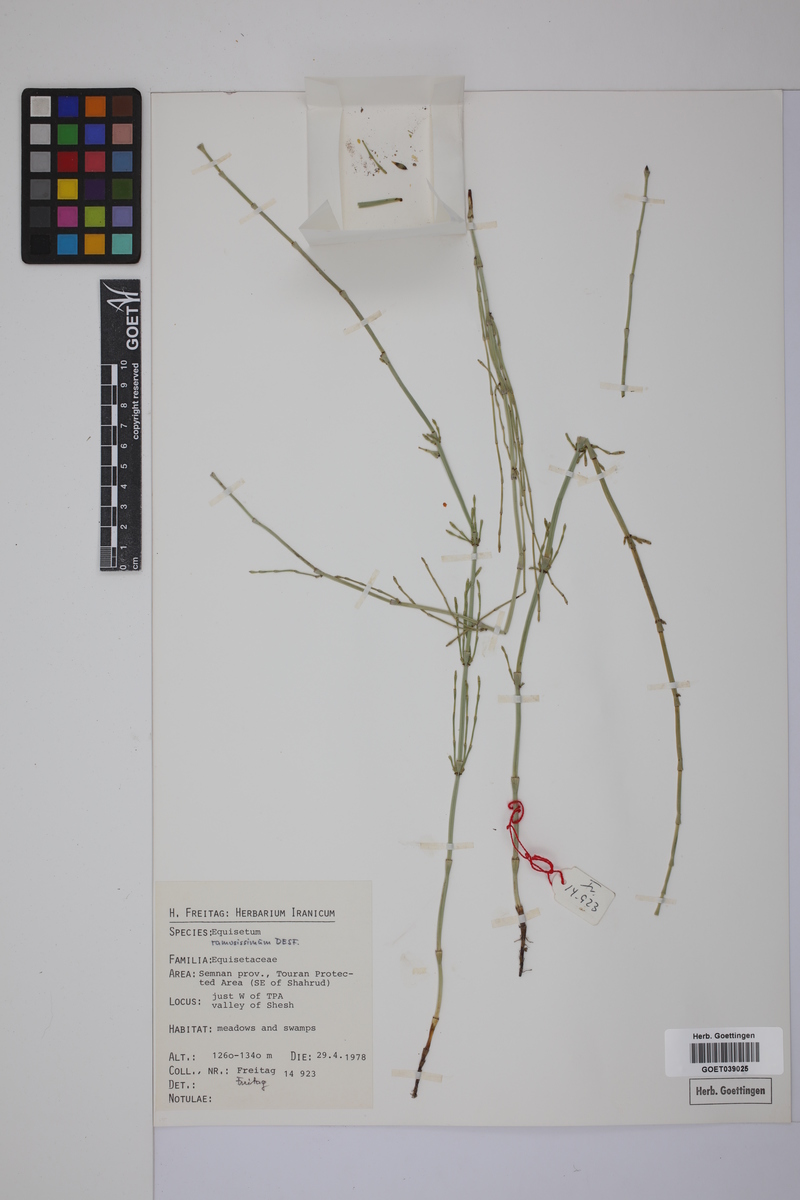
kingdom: Plantae
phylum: Tracheophyta
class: Polypodiopsida
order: Equisetales
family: Equisetaceae
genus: Equisetum
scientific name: Equisetum giganteum
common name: Giant horsetail
